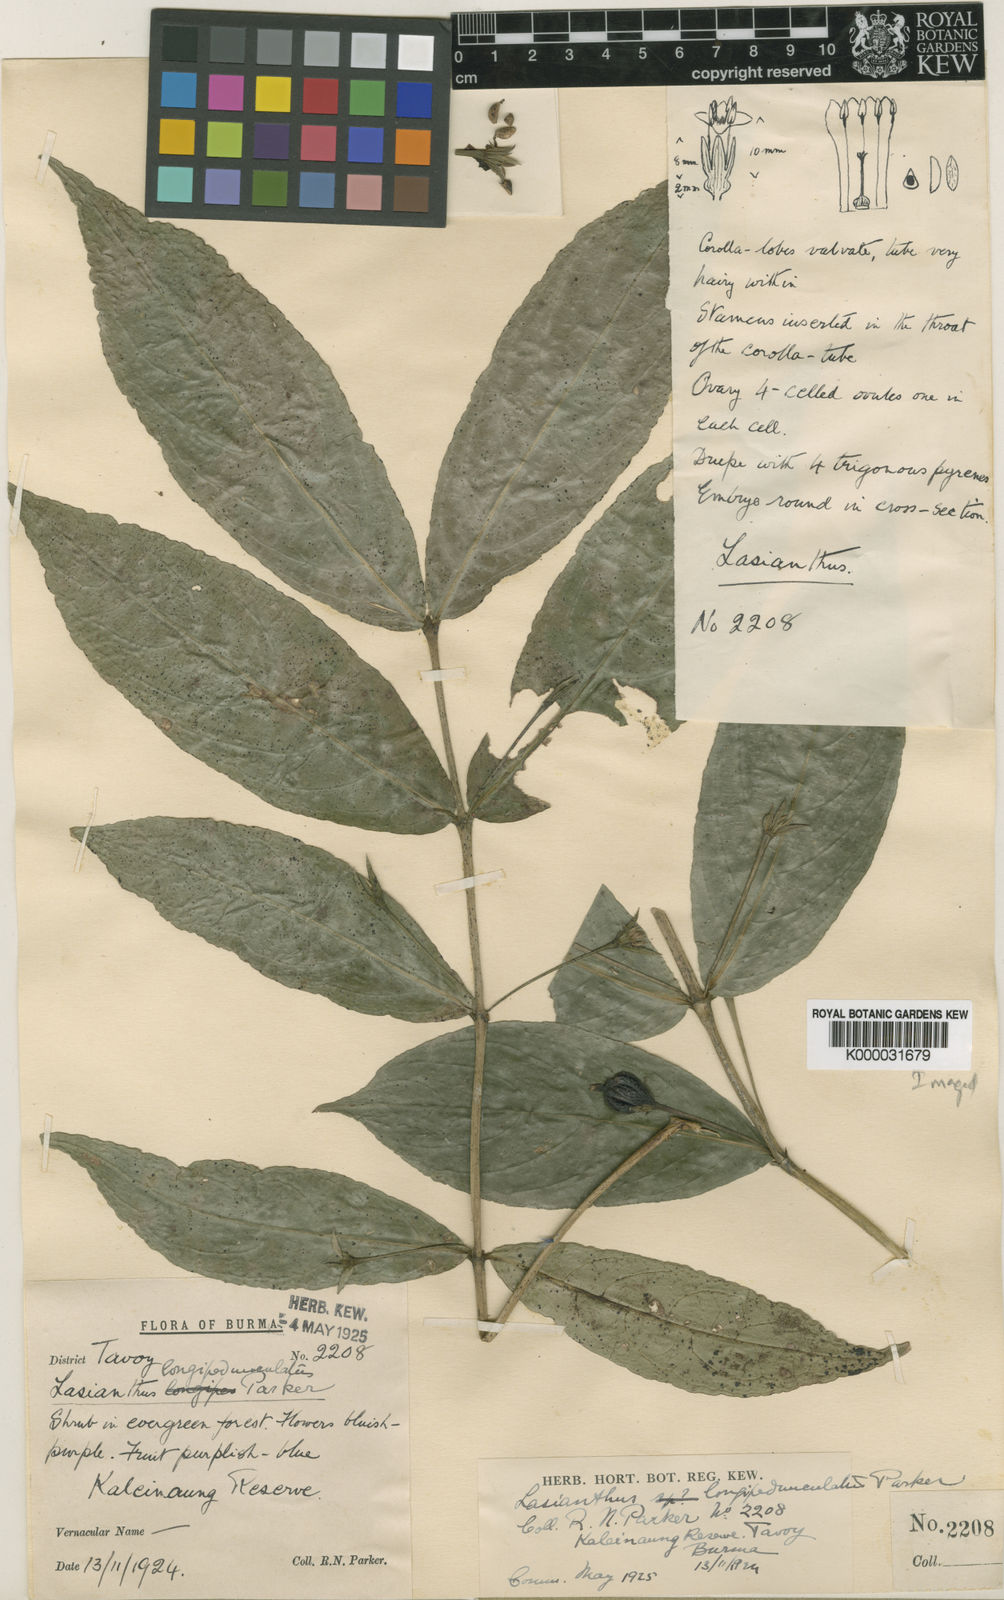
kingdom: Plantae
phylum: Tracheophyta
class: Magnoliopsida
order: Gentianales
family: Rubiaceae
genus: Lasianthus
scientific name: Lasianthus longipedunculatus
